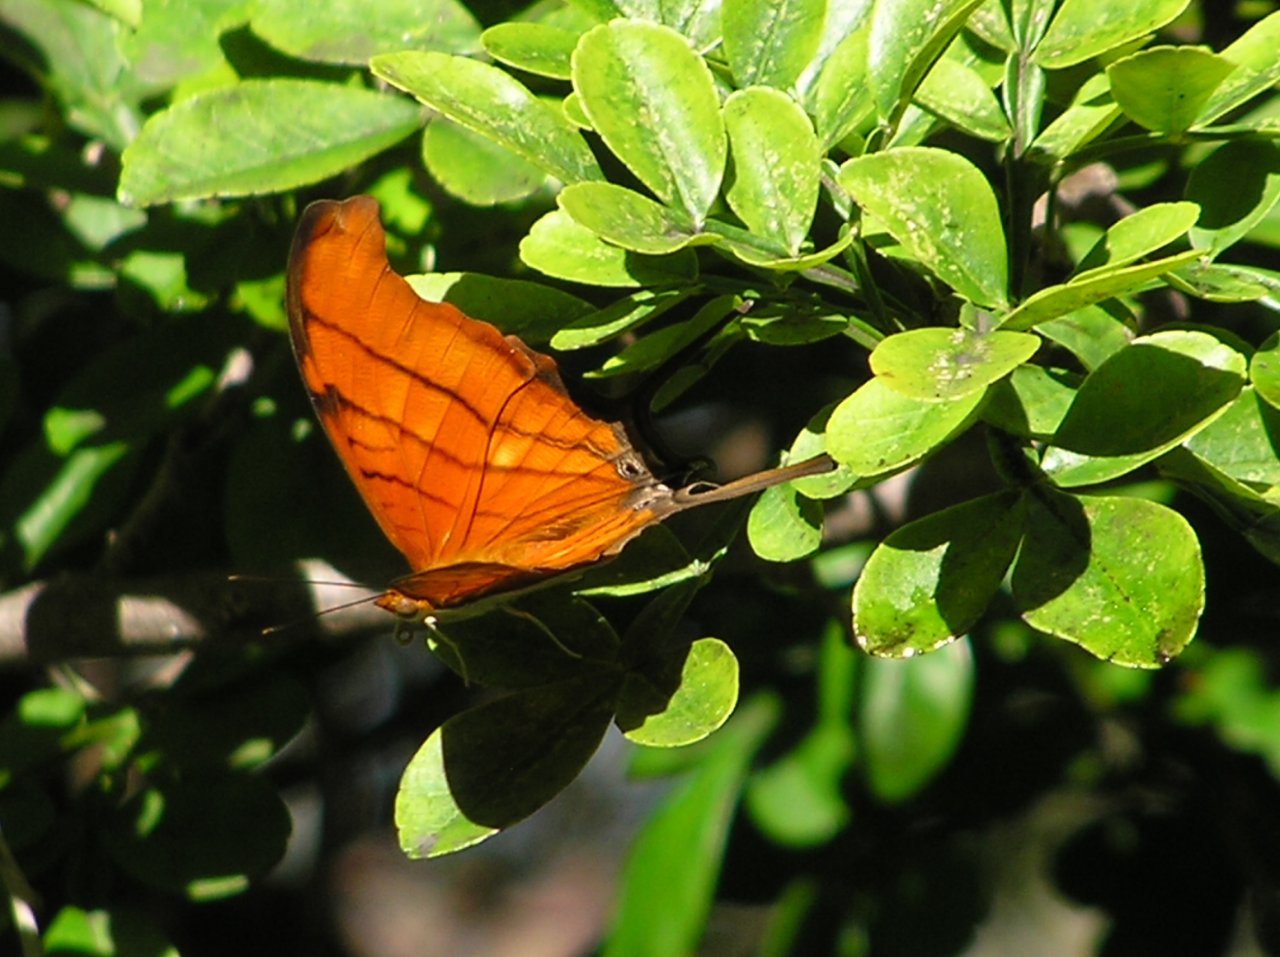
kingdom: Animalia
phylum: Arthropoda
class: Insecta
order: Lepidoptera
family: Nymphalidae
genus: Marpesia
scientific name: Marpesia petreus
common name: Ruddy Daggerwing
